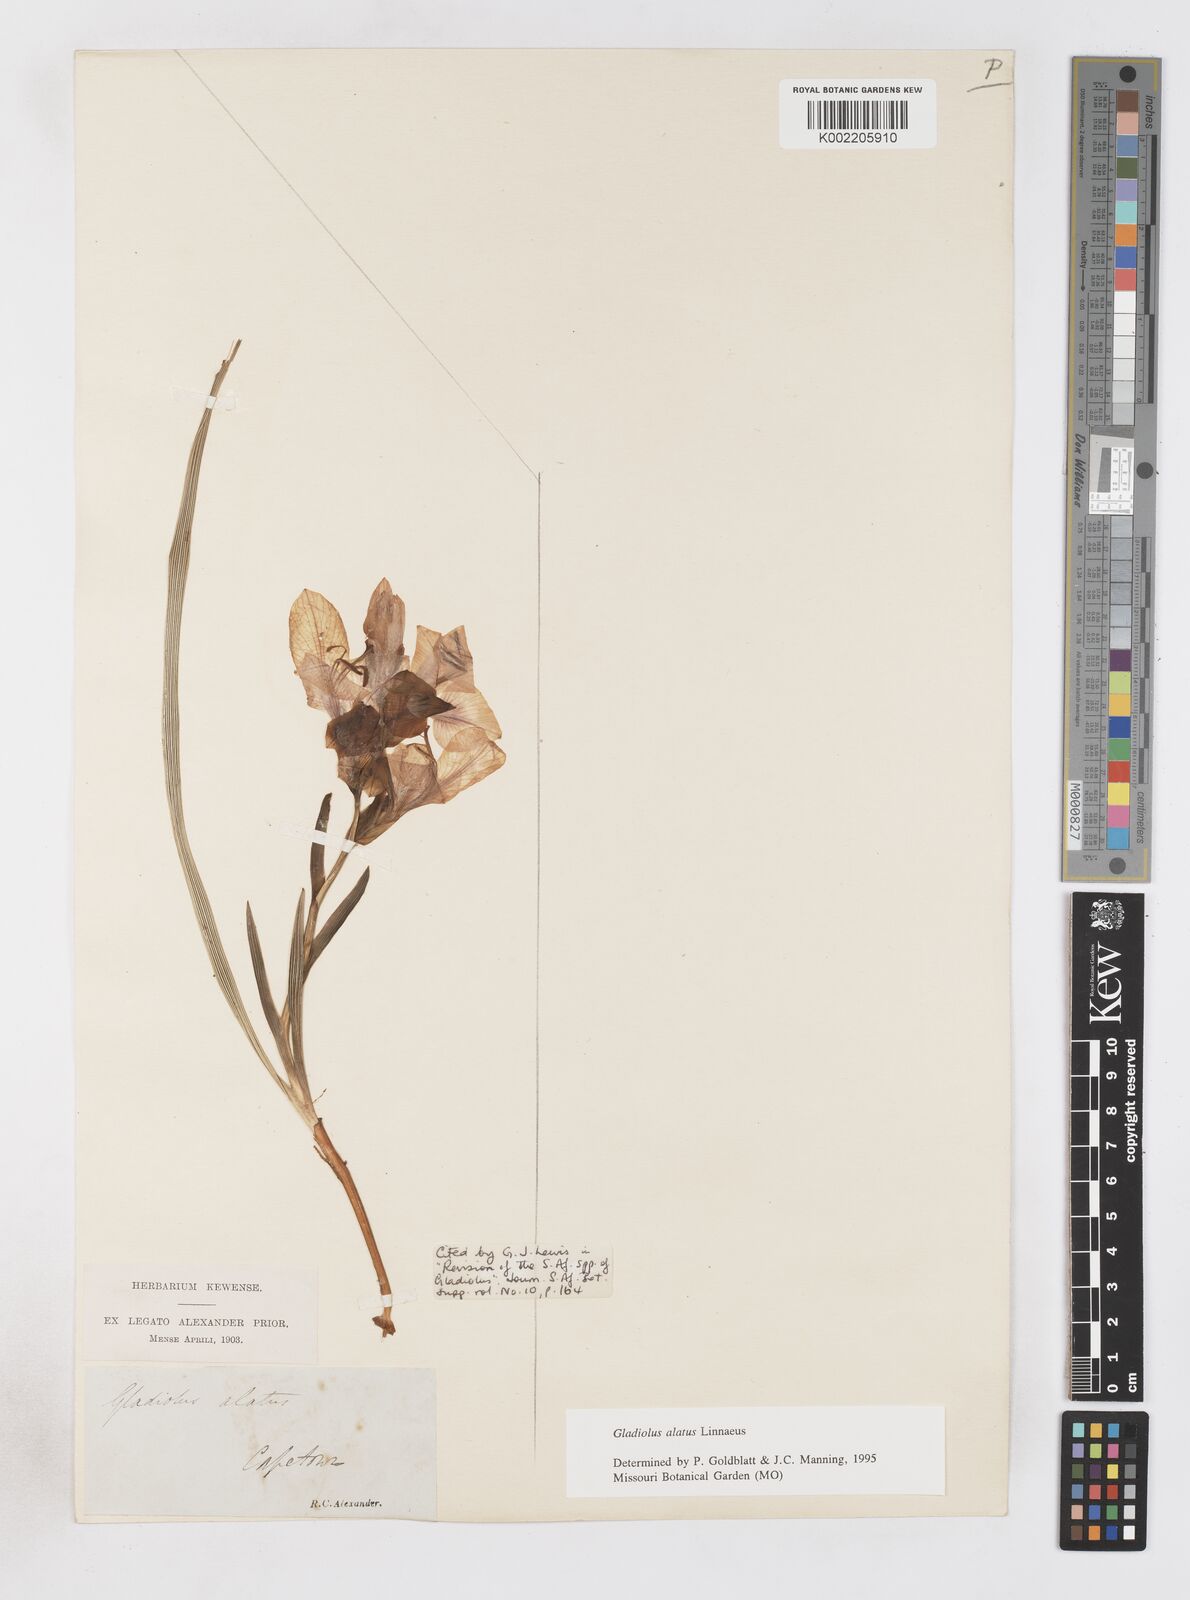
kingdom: Plantae
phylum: Tracheophyta
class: Liliopsida
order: Asparagales
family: Iridaceae
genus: Gladiolus
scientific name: Gladiolus alatus
